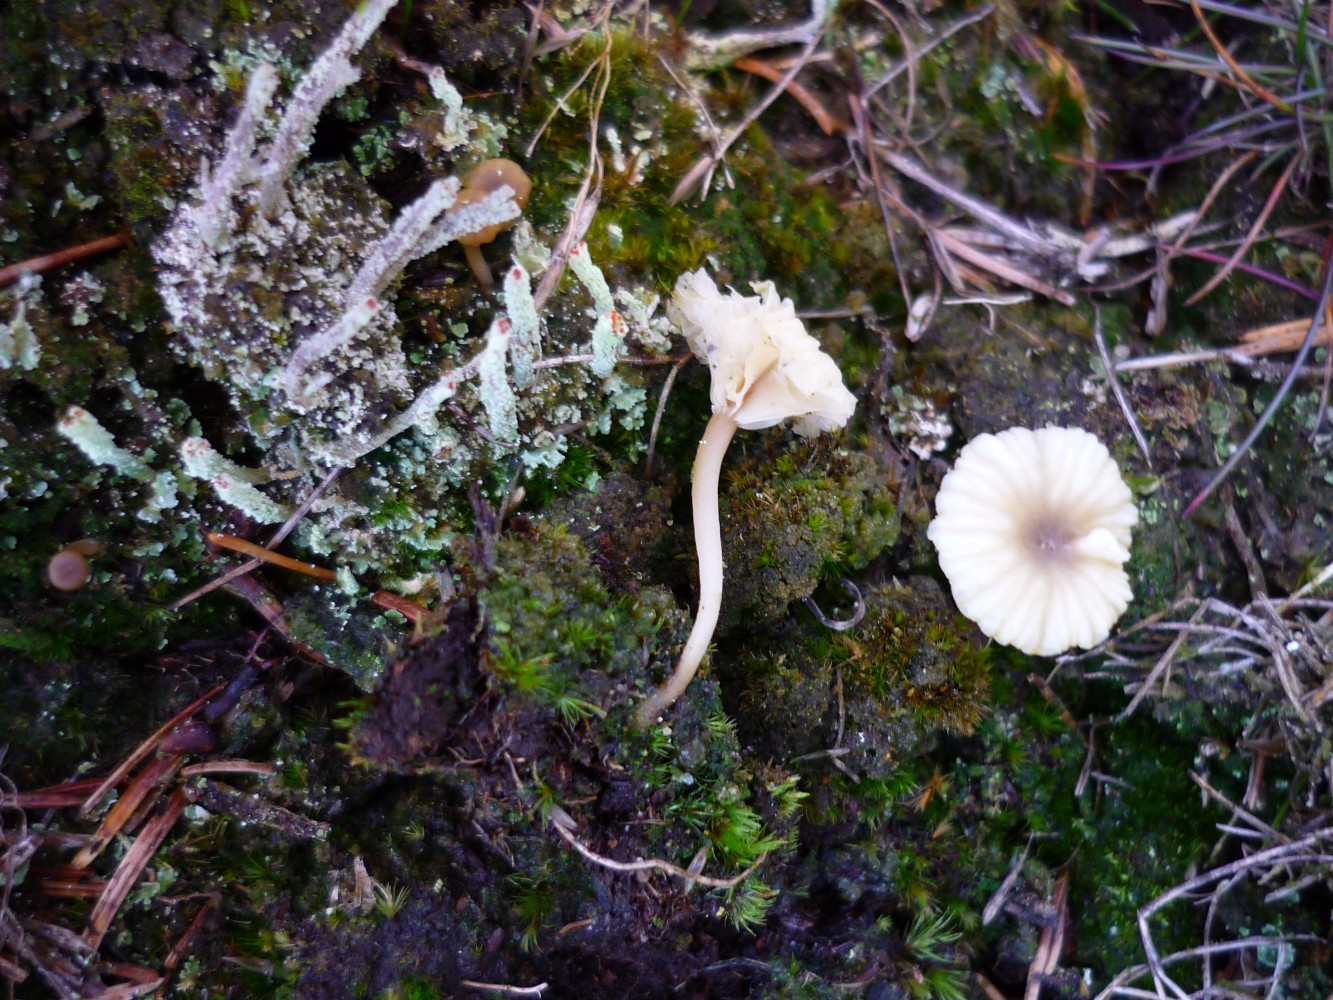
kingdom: Fungi
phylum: Basidiomycota
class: Agaricomycetes
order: Agaricales
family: Hygrophoraceae
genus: Lichenomphalia
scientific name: Lichenomphalia umbellifera
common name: tørve-lavhat
